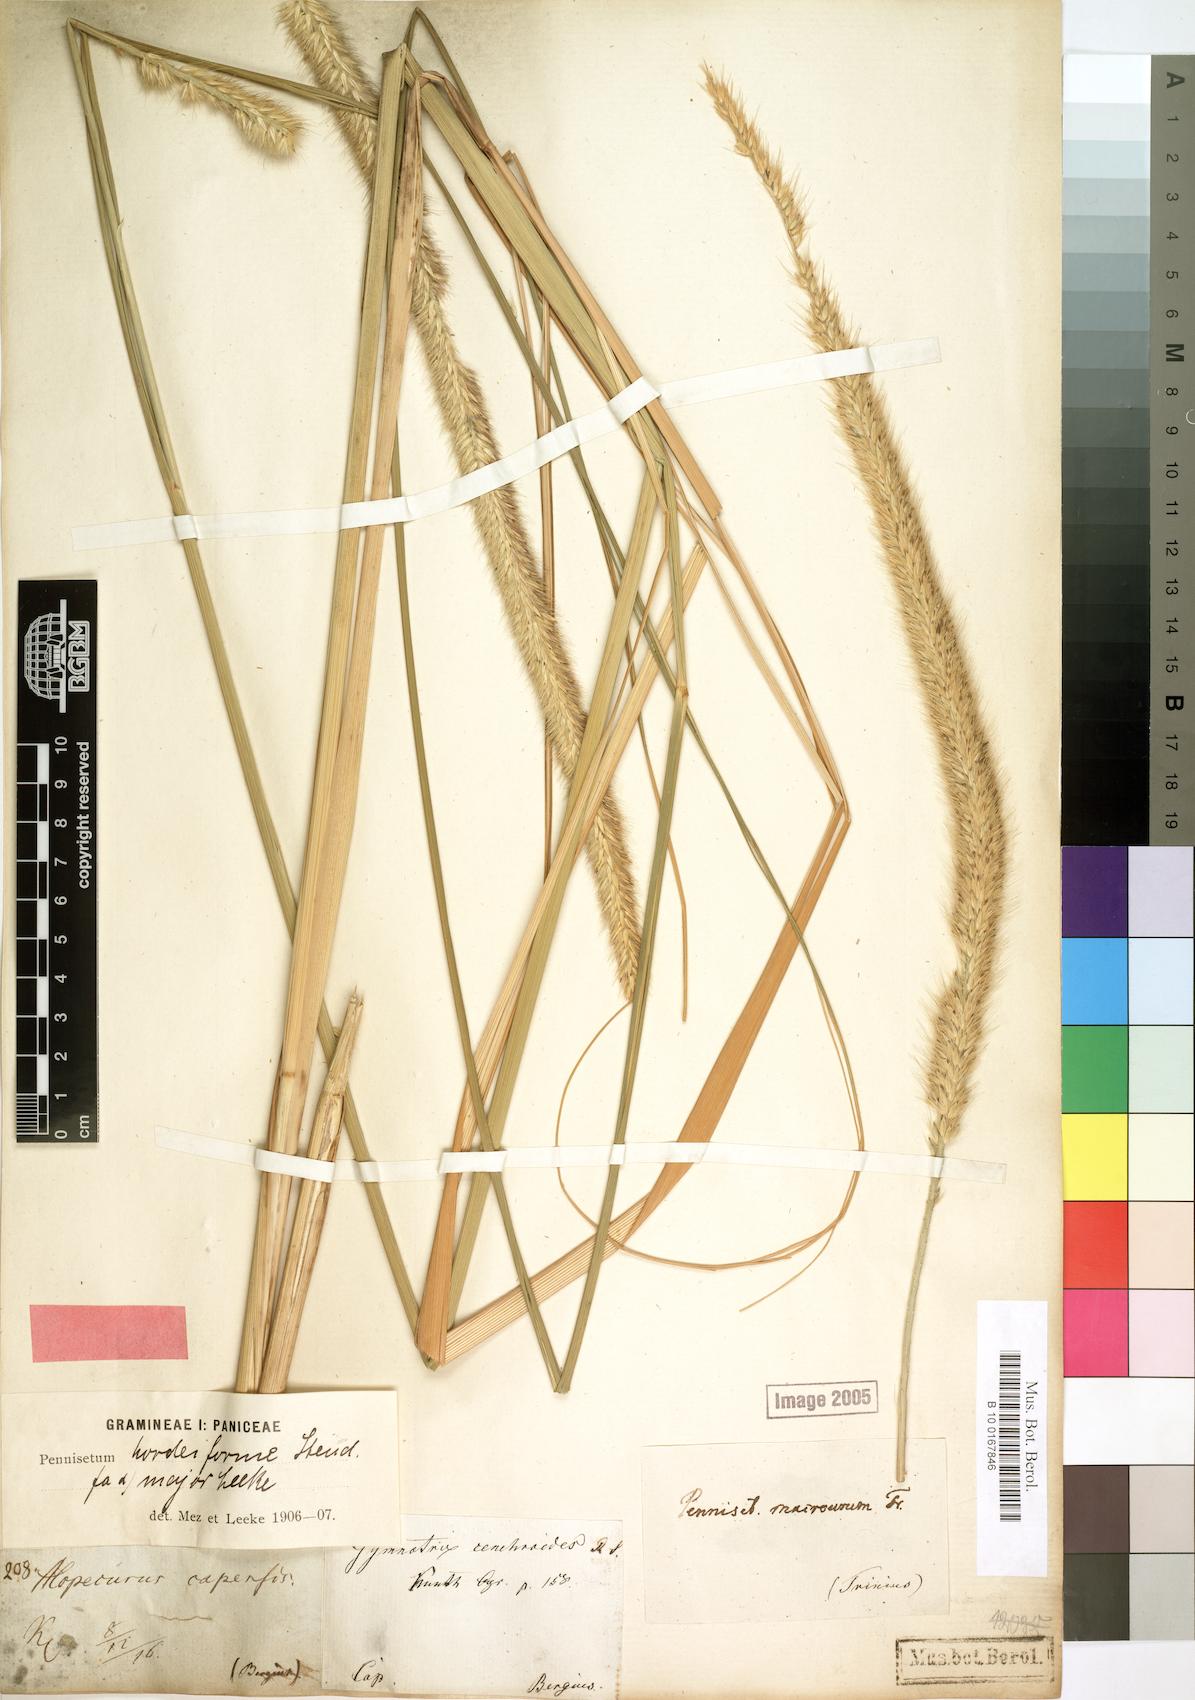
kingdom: Plantae
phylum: Tracheophyta
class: Liliopsida
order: Poales
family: Poaceae
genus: Cenchrus
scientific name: Cenchrus caudatus
